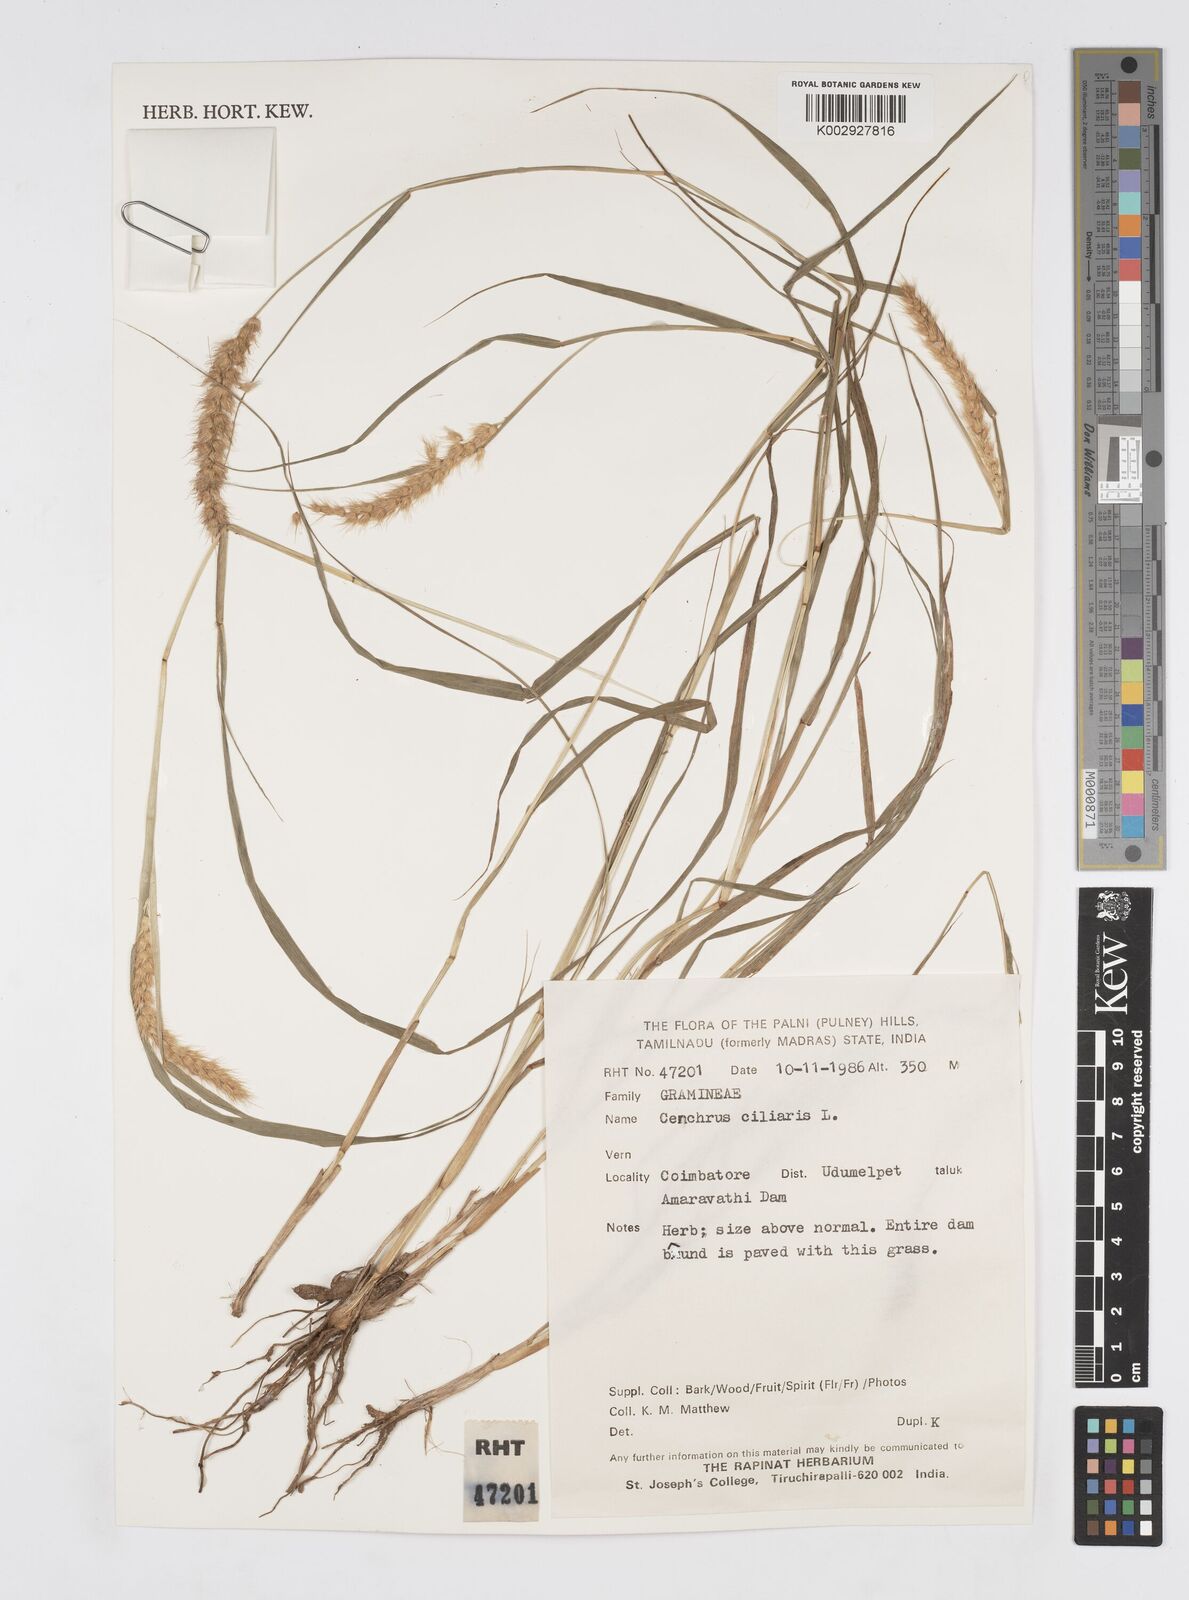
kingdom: Plantae
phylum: Tracheophyta
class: Liliopsida
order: Poales
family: Poaceae
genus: Cenchrus
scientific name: Cenchrus ciliaris
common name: Buffelgrass
